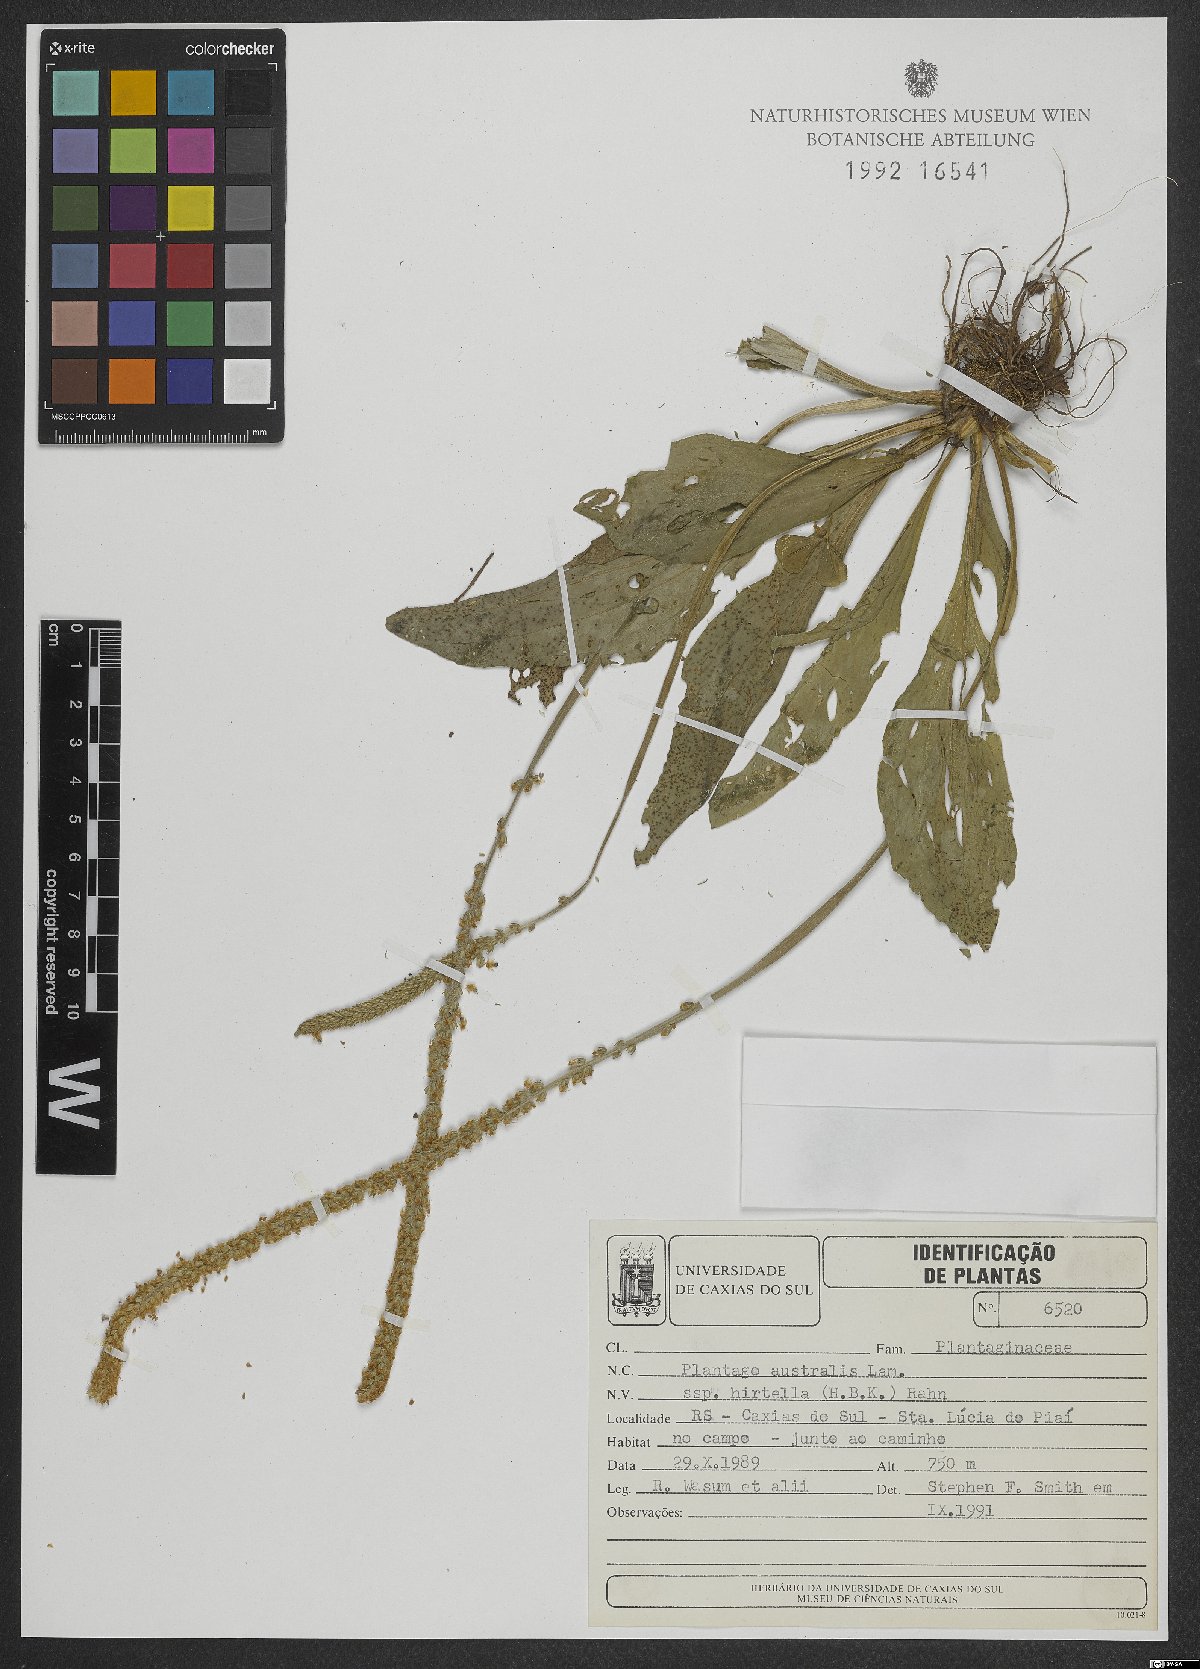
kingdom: Plantae
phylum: Tracheophyta
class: Magnoliopsida
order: Lamiales
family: Plantaginaceae
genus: Plantago
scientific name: Plantago australis
